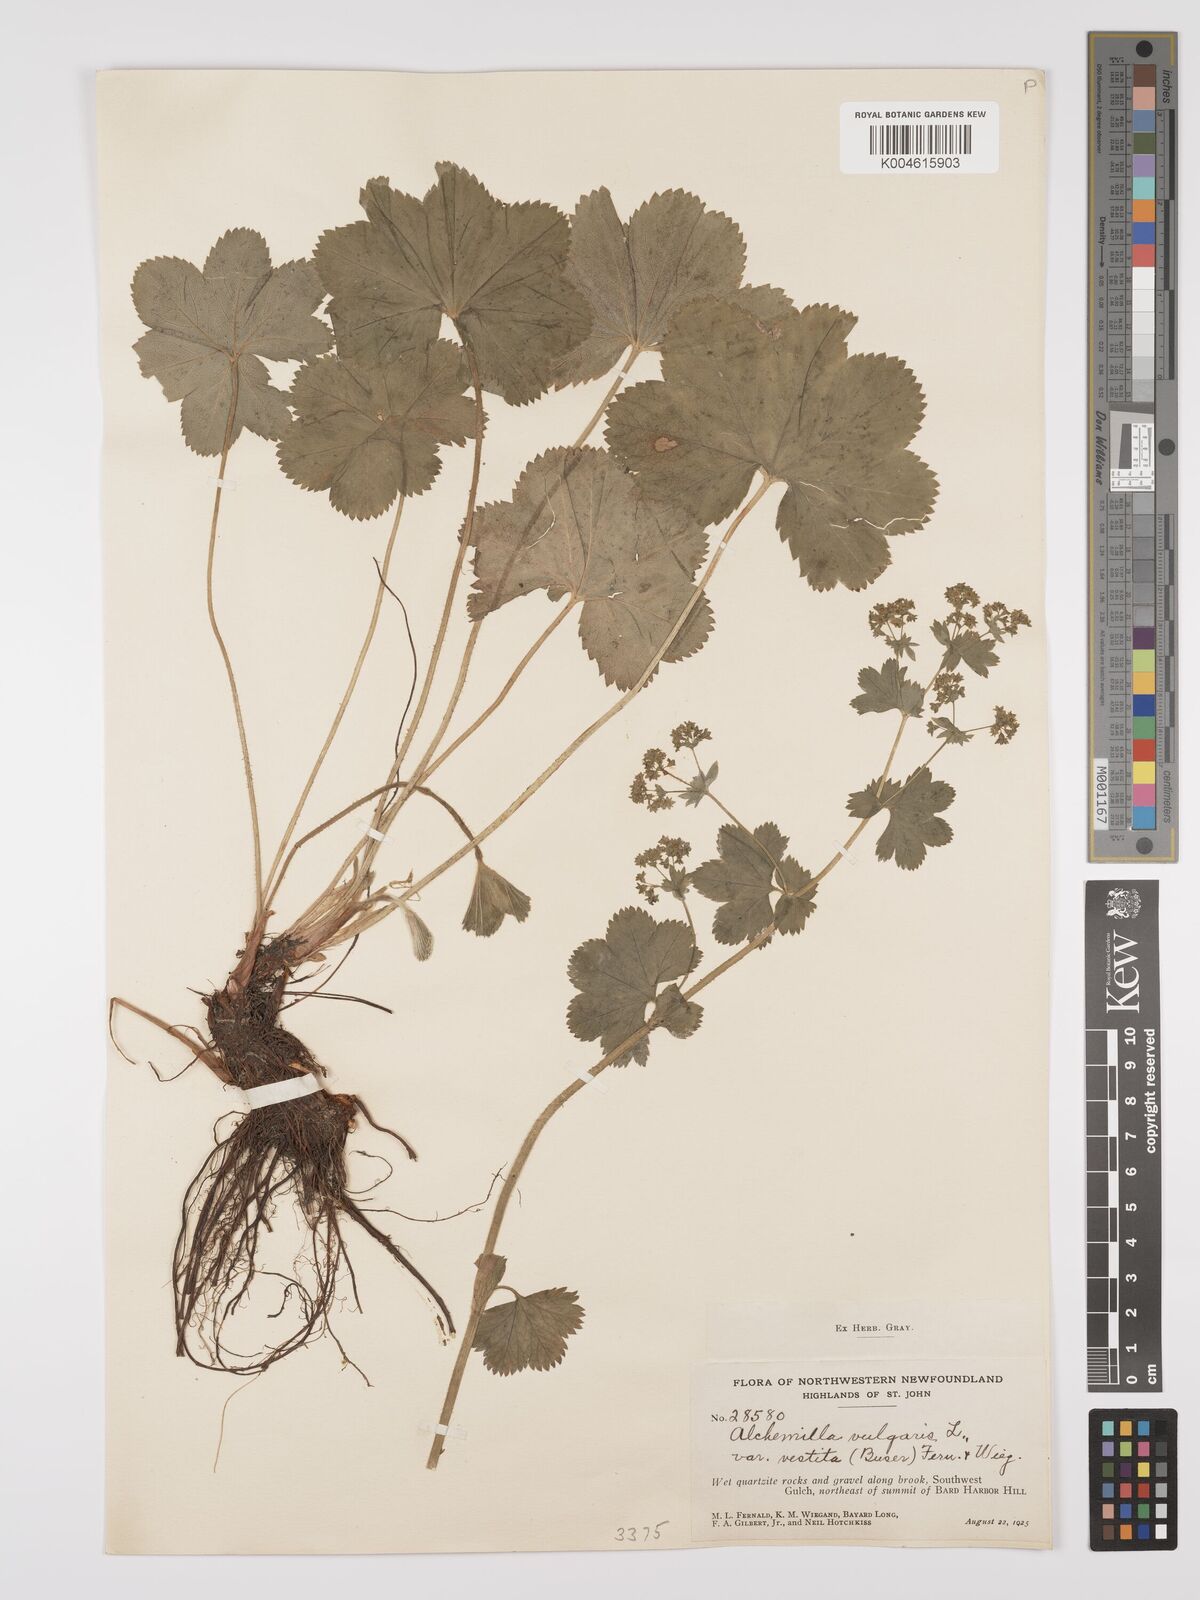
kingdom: Plantae
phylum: Tracheophyta
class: Magnoliopsida
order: Rosales
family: Rosaceae
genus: Alchemilla
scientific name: Alchemilla vulgaris
